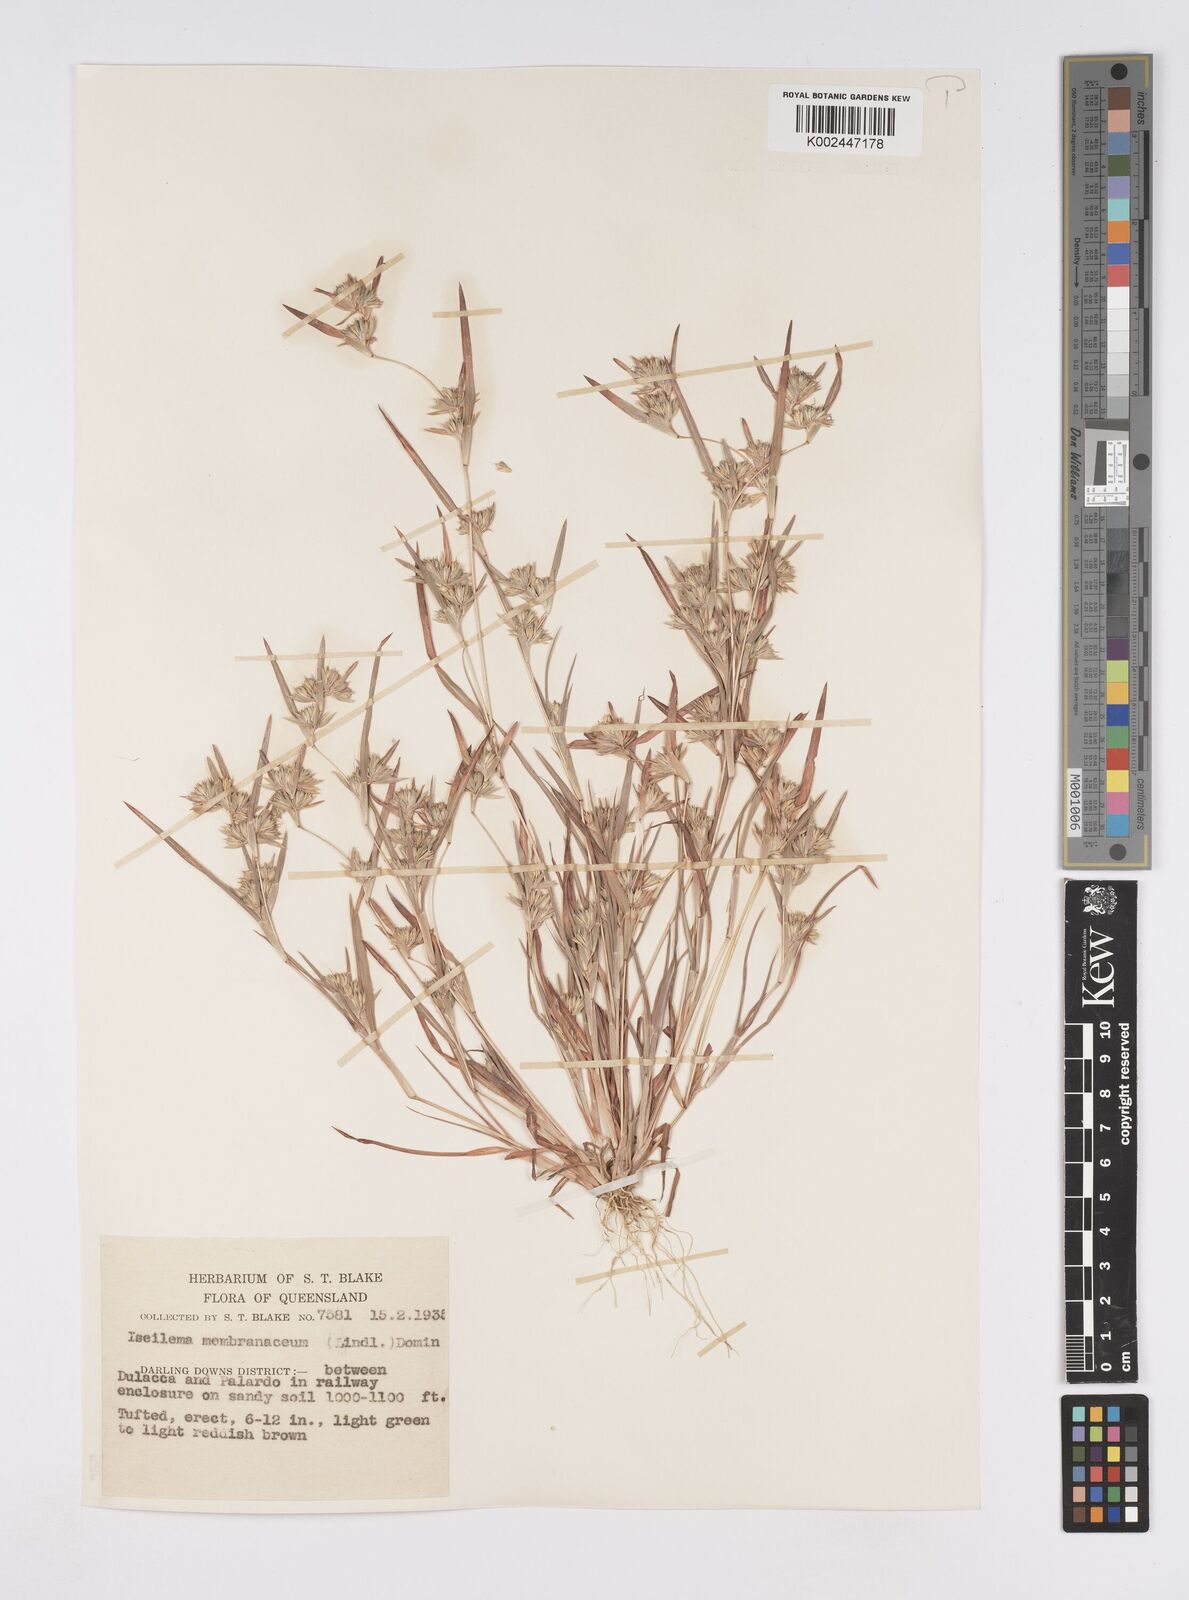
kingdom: Plantae
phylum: Tracheophyta
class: Liliopsida
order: Poales
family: Poaceae
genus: Iseilema
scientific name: Iseilema membranaceum
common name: Small flinders grass
